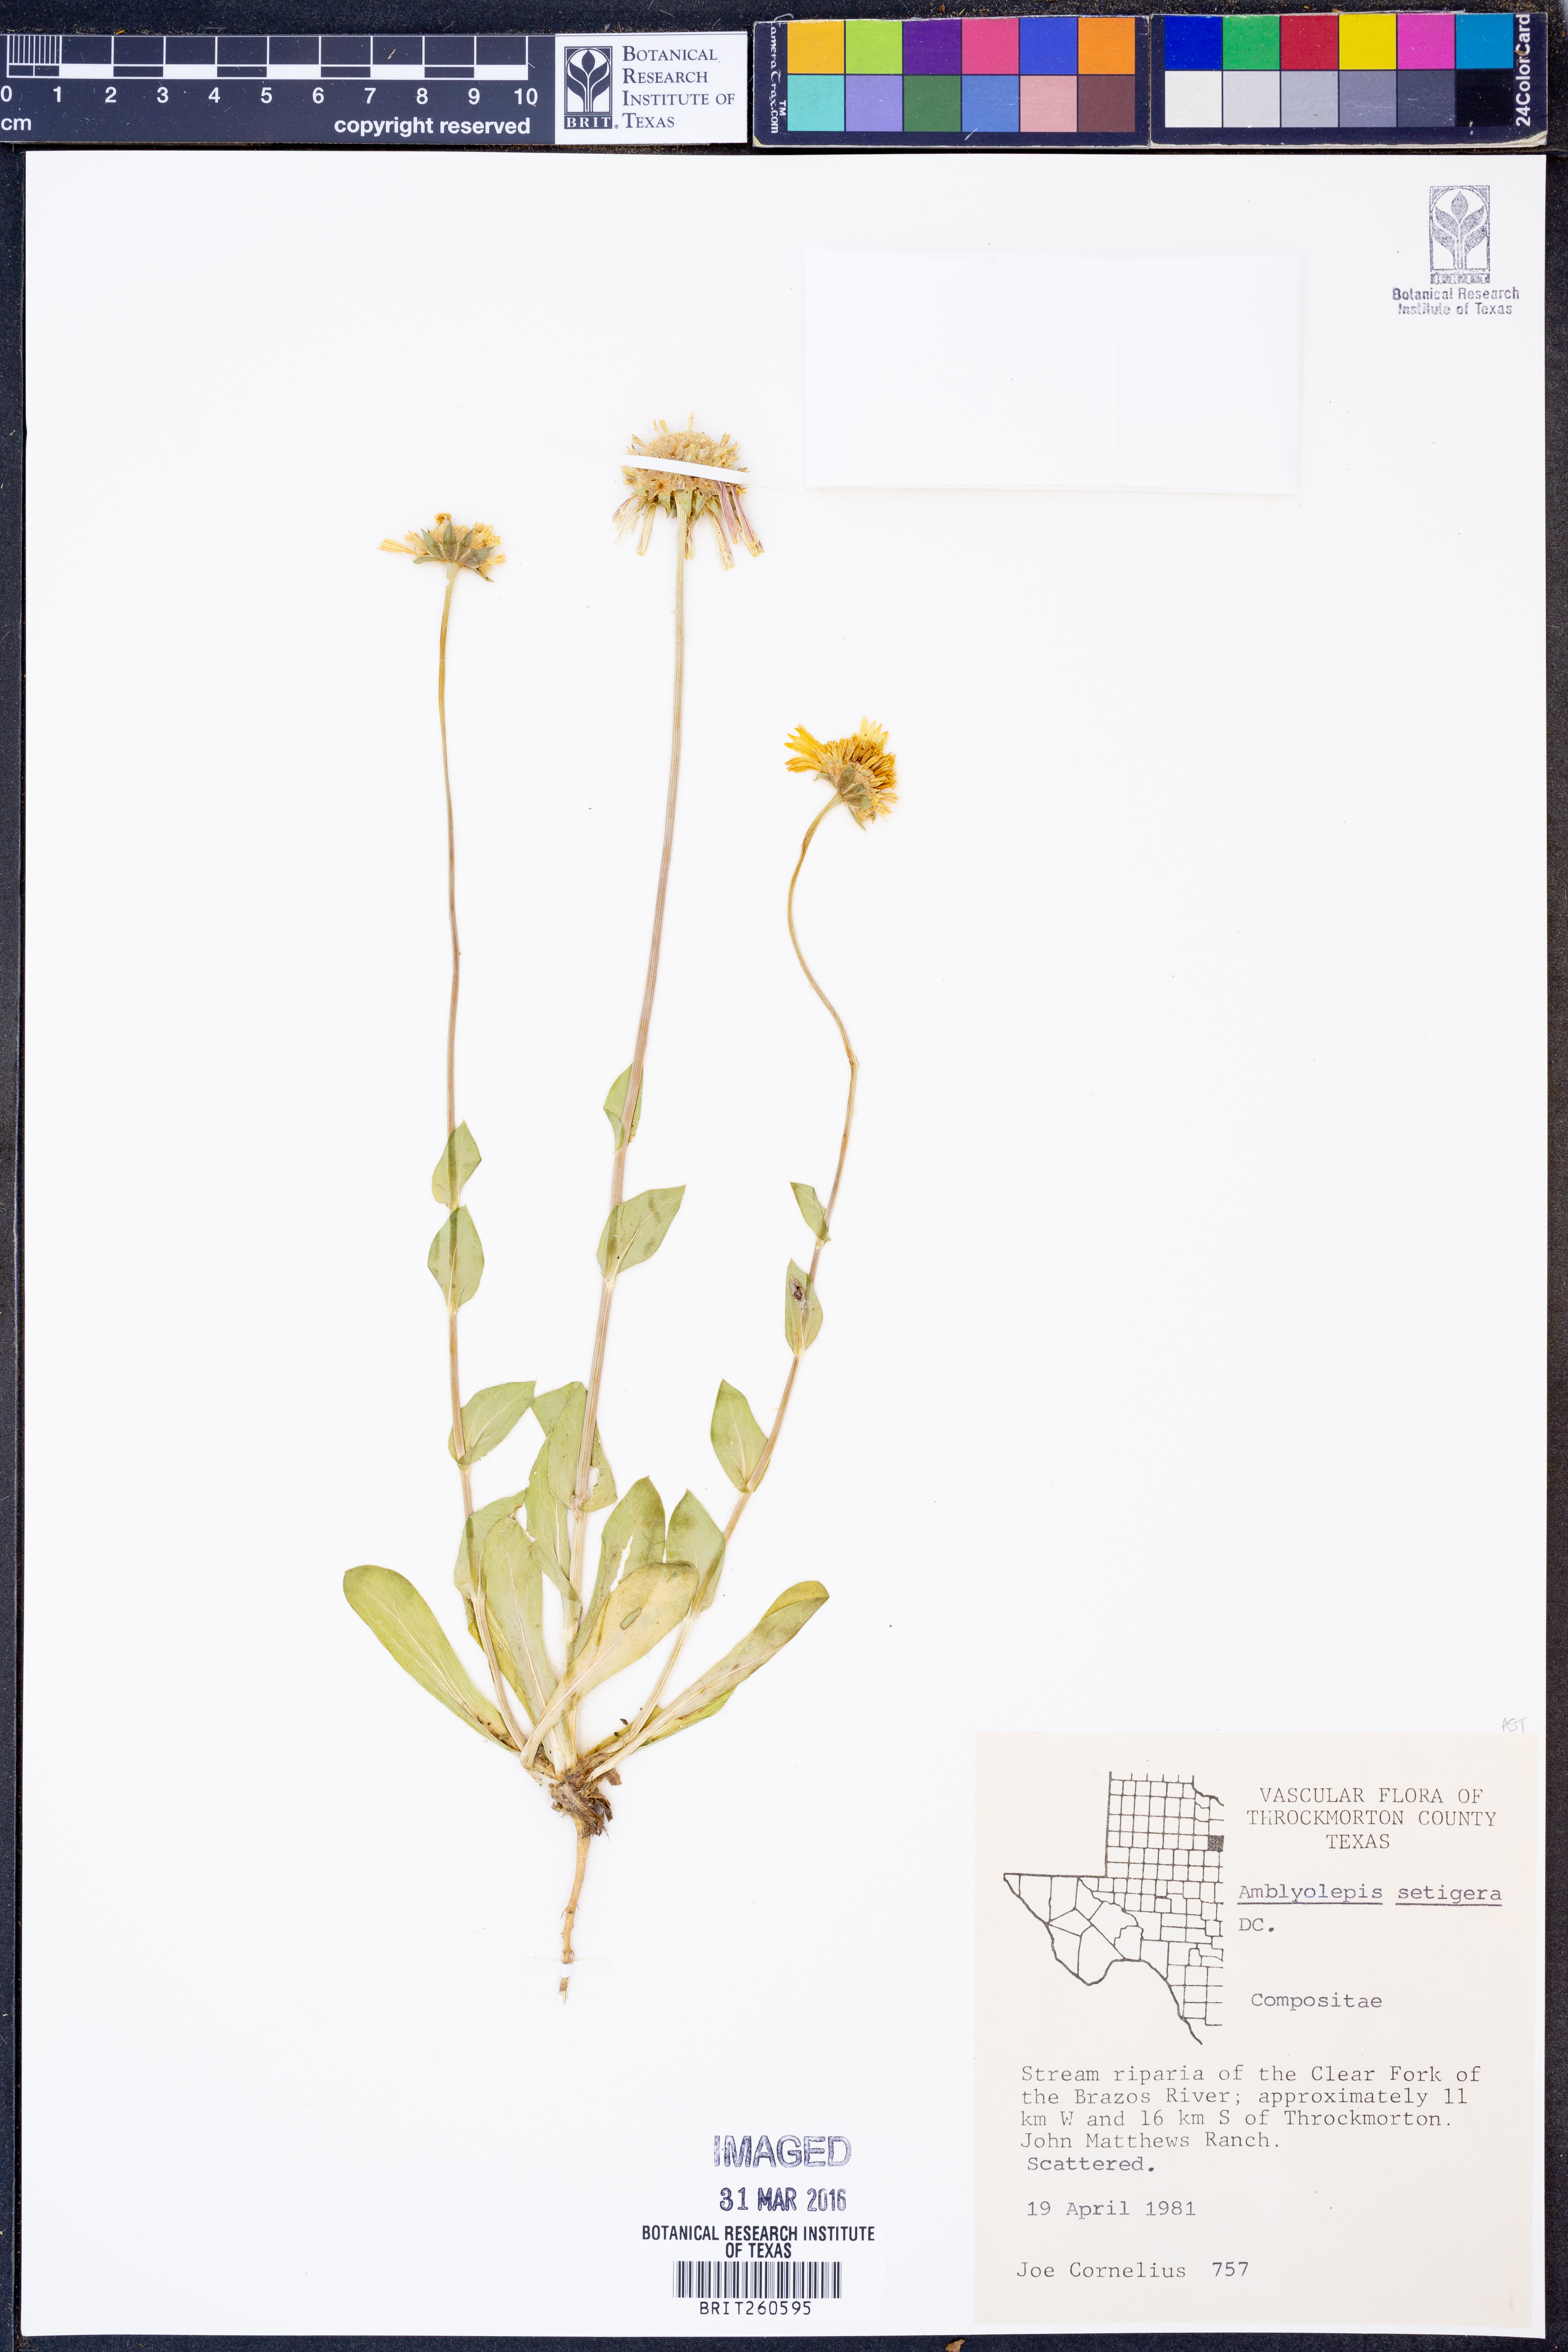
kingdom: Plantae
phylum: Tracheophyta
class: Magnoliopsida
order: Asterales
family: Asteraceae
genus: Amblyolepis
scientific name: Amblyolepis setigera
